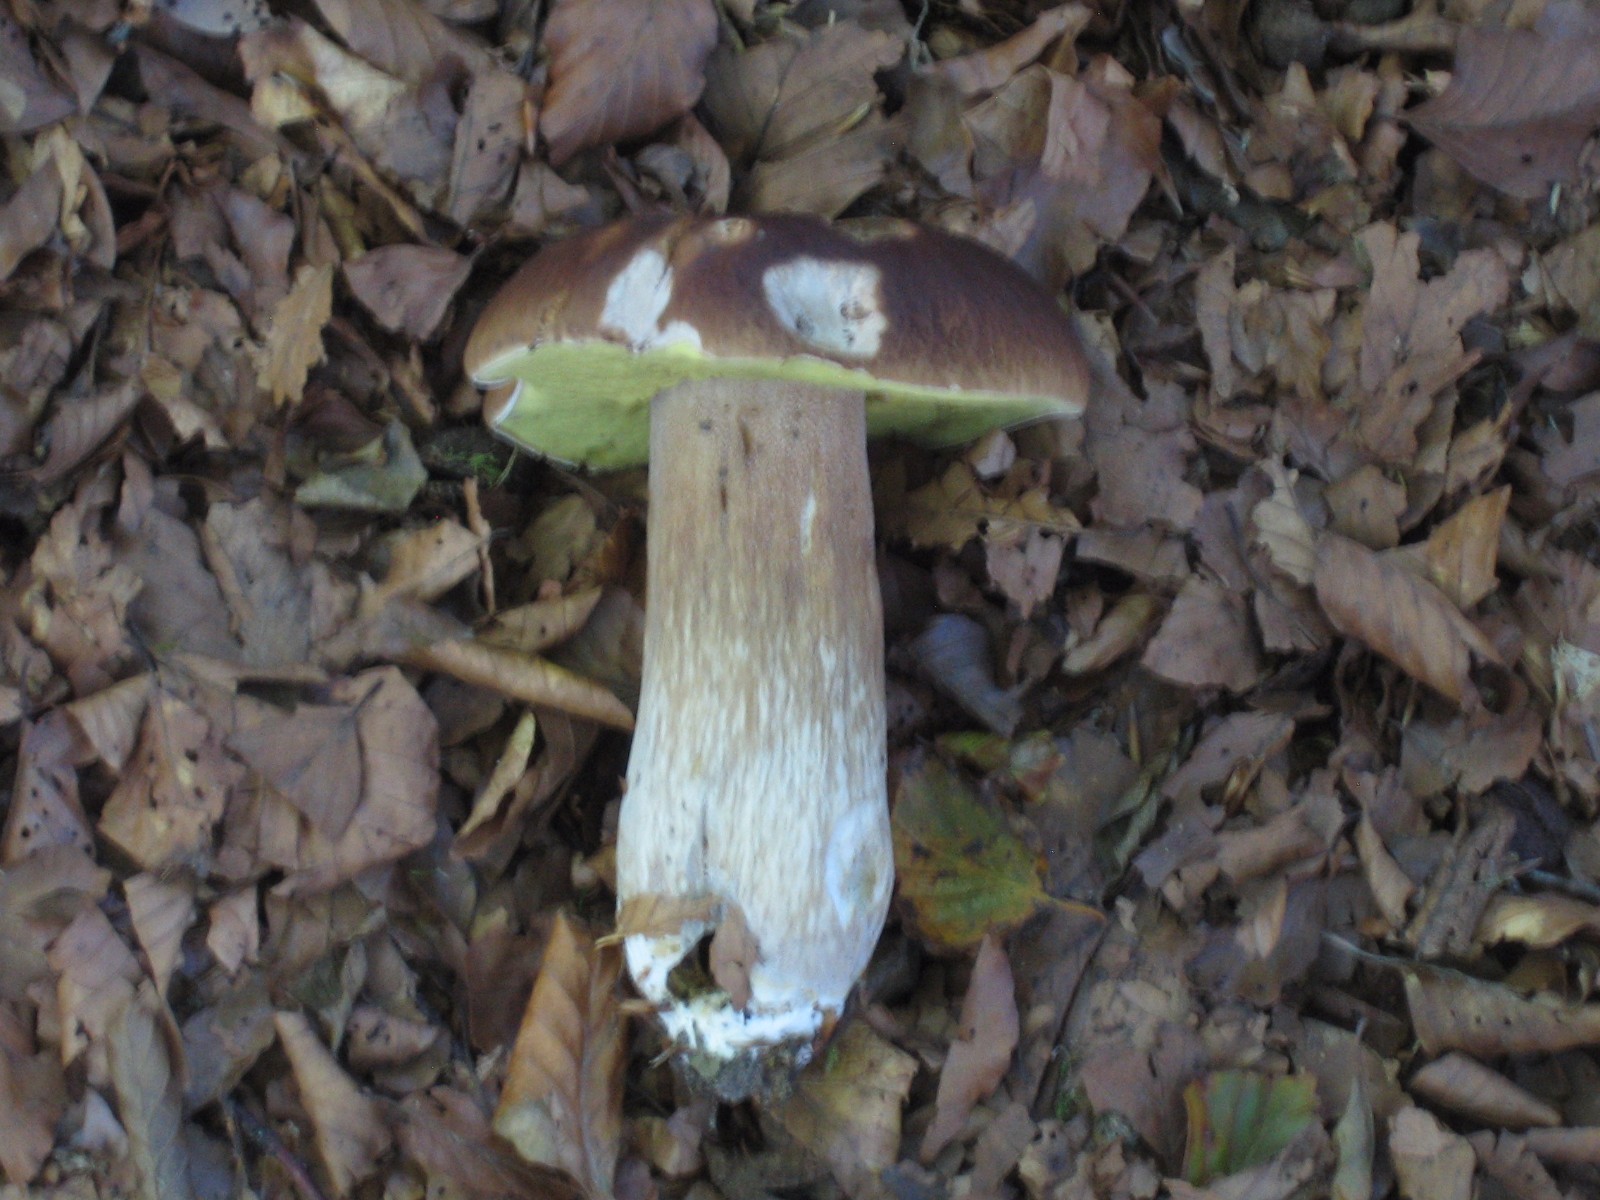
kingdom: Fungi
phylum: Basidiomycota
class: Agaricomycetes
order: Boletales
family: Boletaceae
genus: Boletus
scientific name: Boletus edulis
